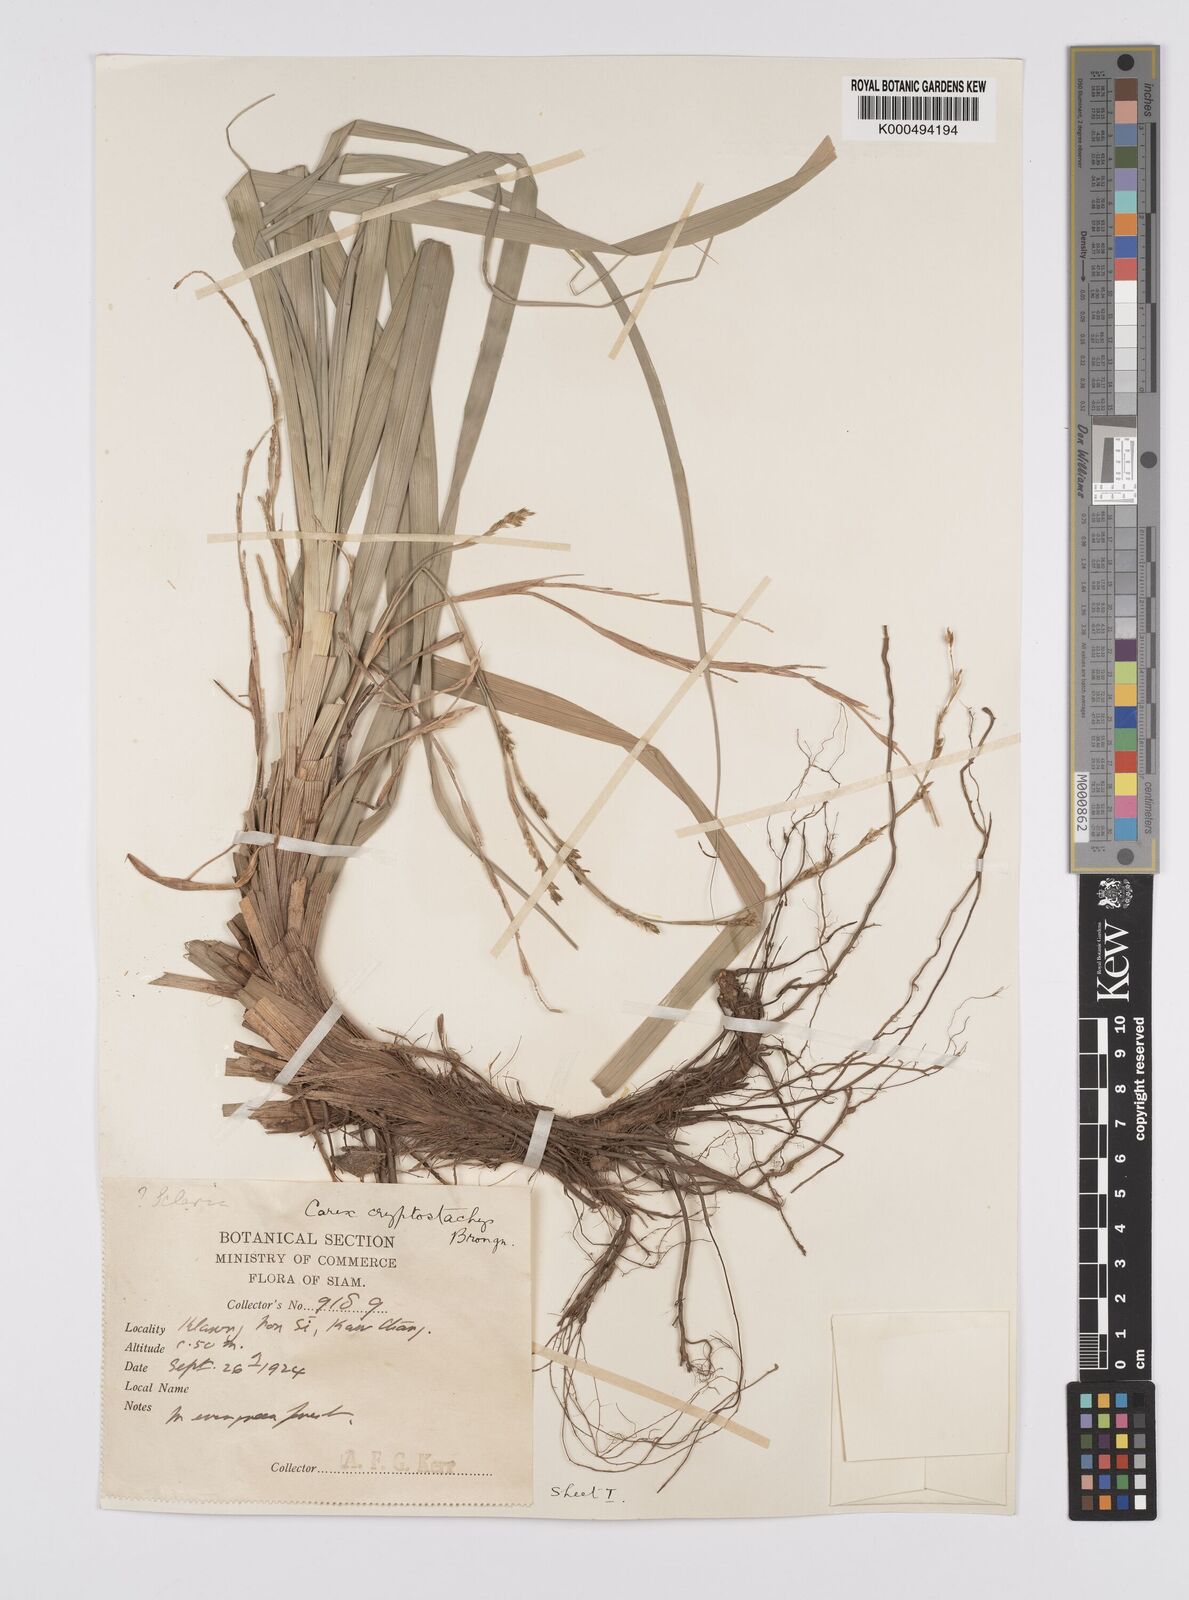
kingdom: Plantae
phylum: Tracheophyta
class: Liliopsida
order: Poales
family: Cyperaceae
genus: Carex
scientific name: Carex cryptostachys
